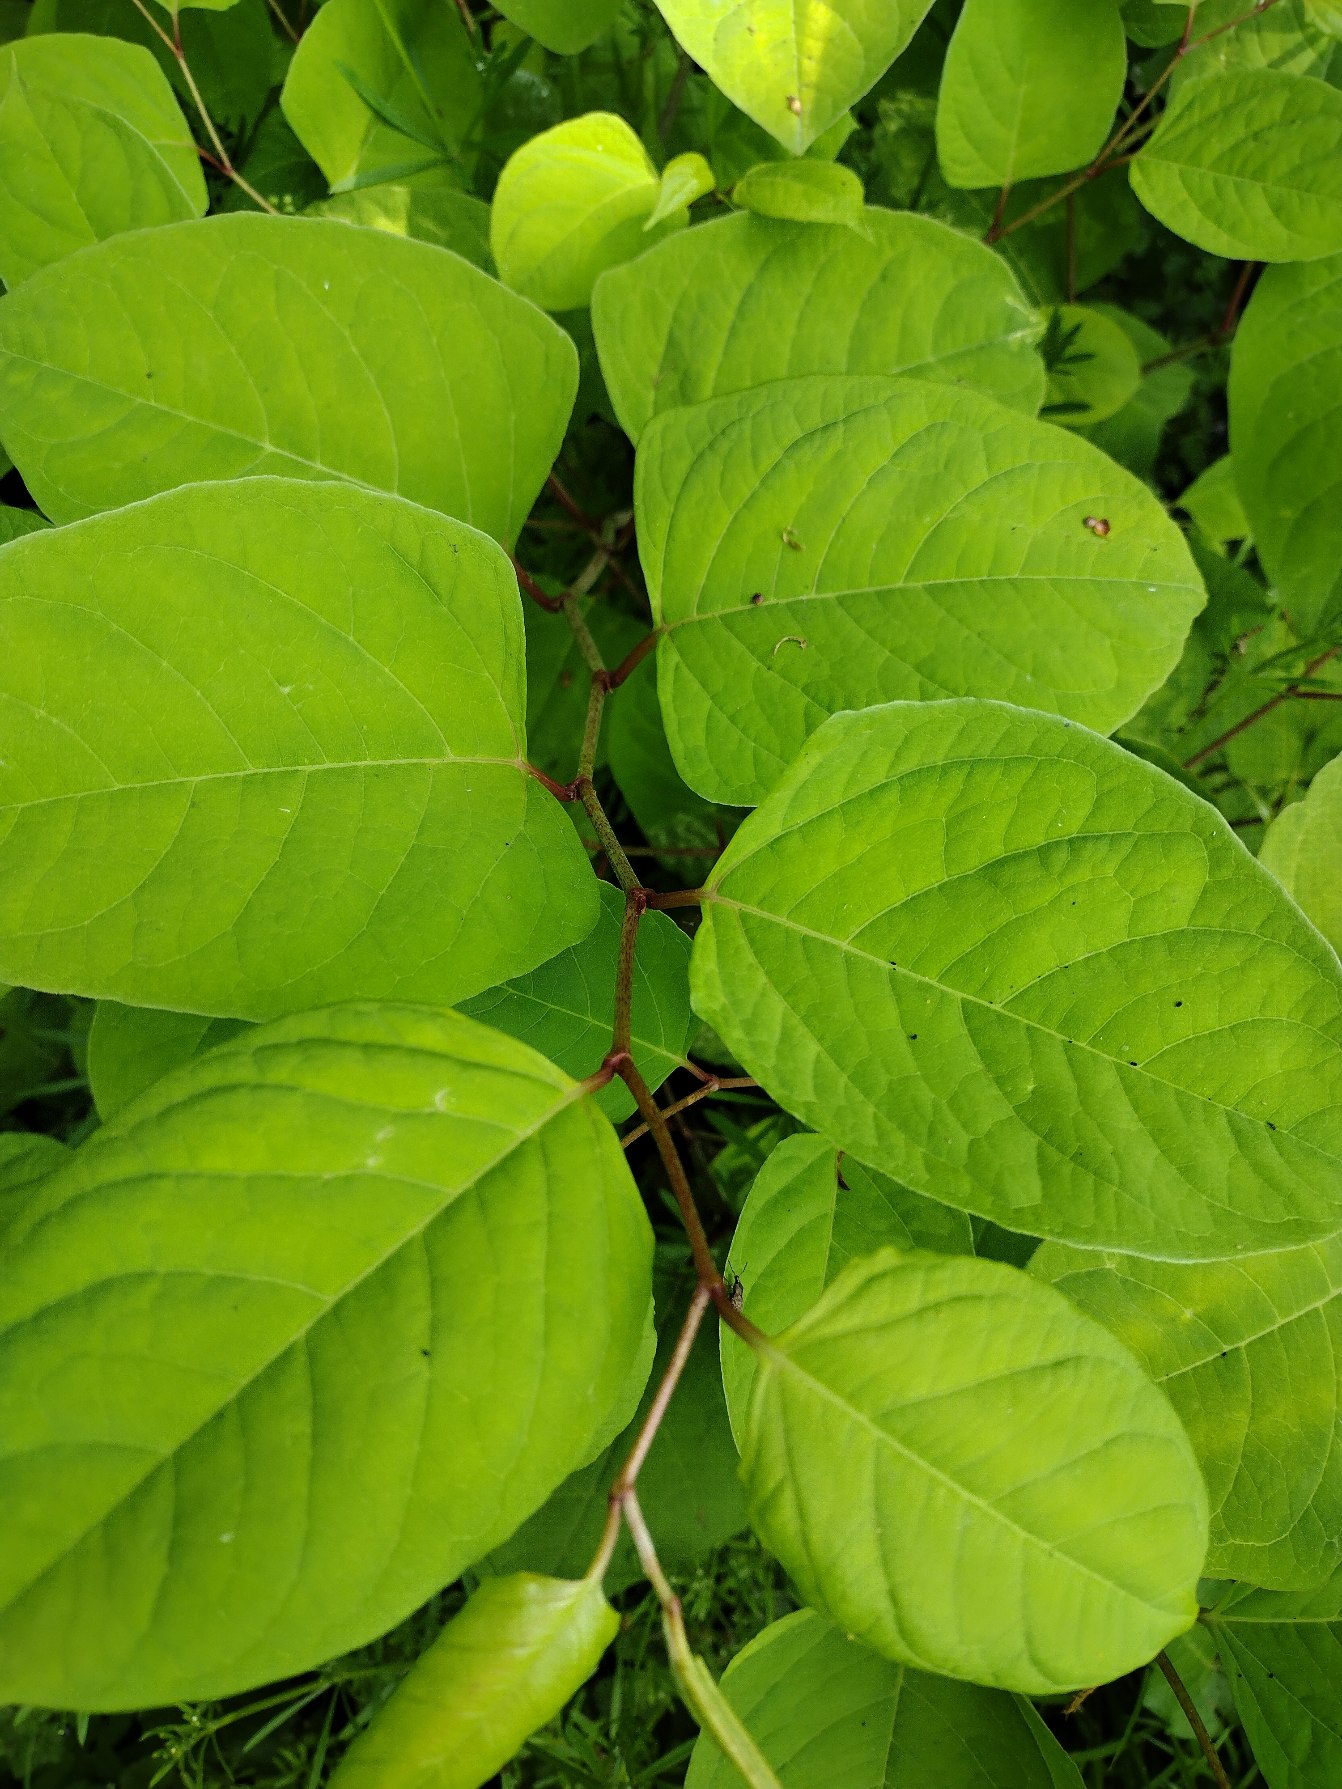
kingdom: Plantae
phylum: Tracheophyta
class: Magnoliopsida
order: Caryophyllales
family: Polygonaceae
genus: Reynoutria
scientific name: Reynoutria japonica
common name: Japan-pileurt
